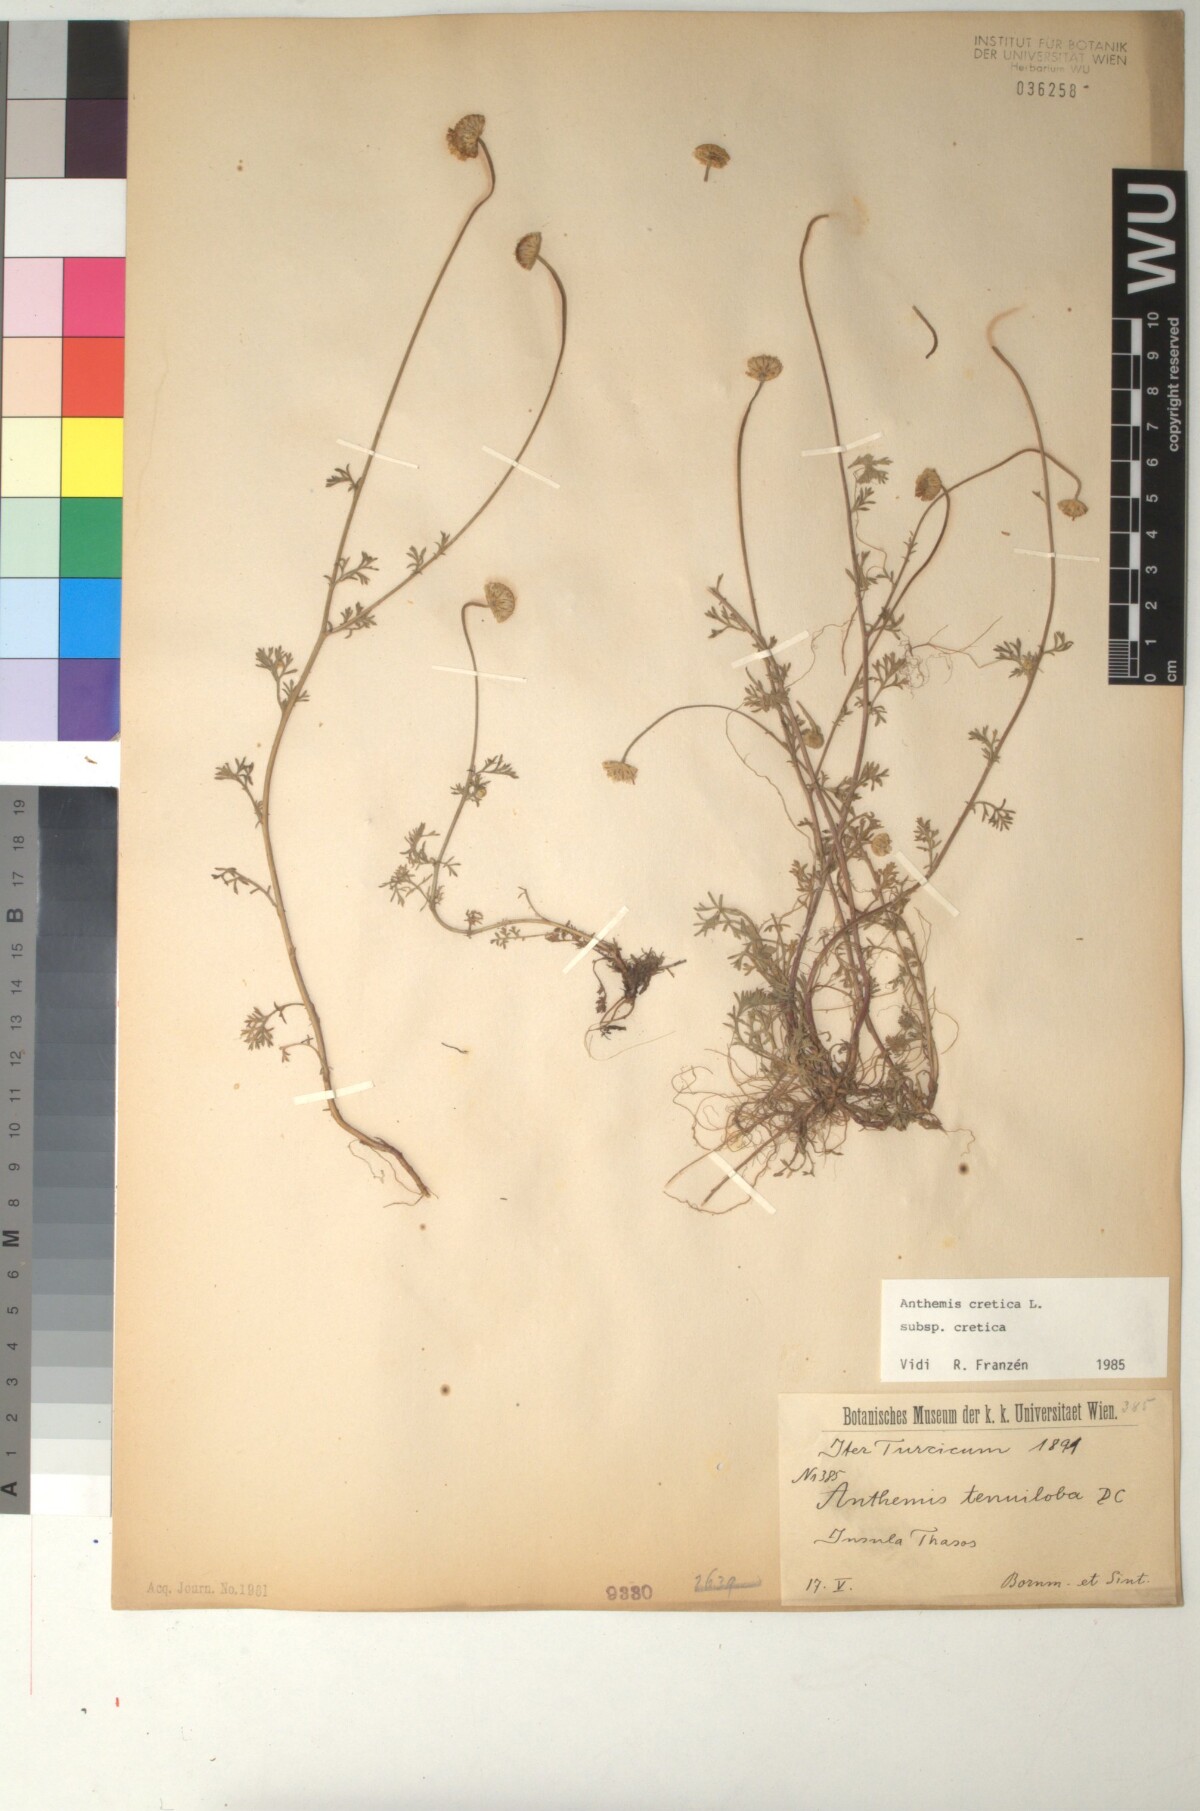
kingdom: Plantae
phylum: Tracheophyta
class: Magnoliopsida
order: Asterales
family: Asteraceae
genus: Anthemis
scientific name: Anthemis cretica
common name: Mountain dog-daisy
